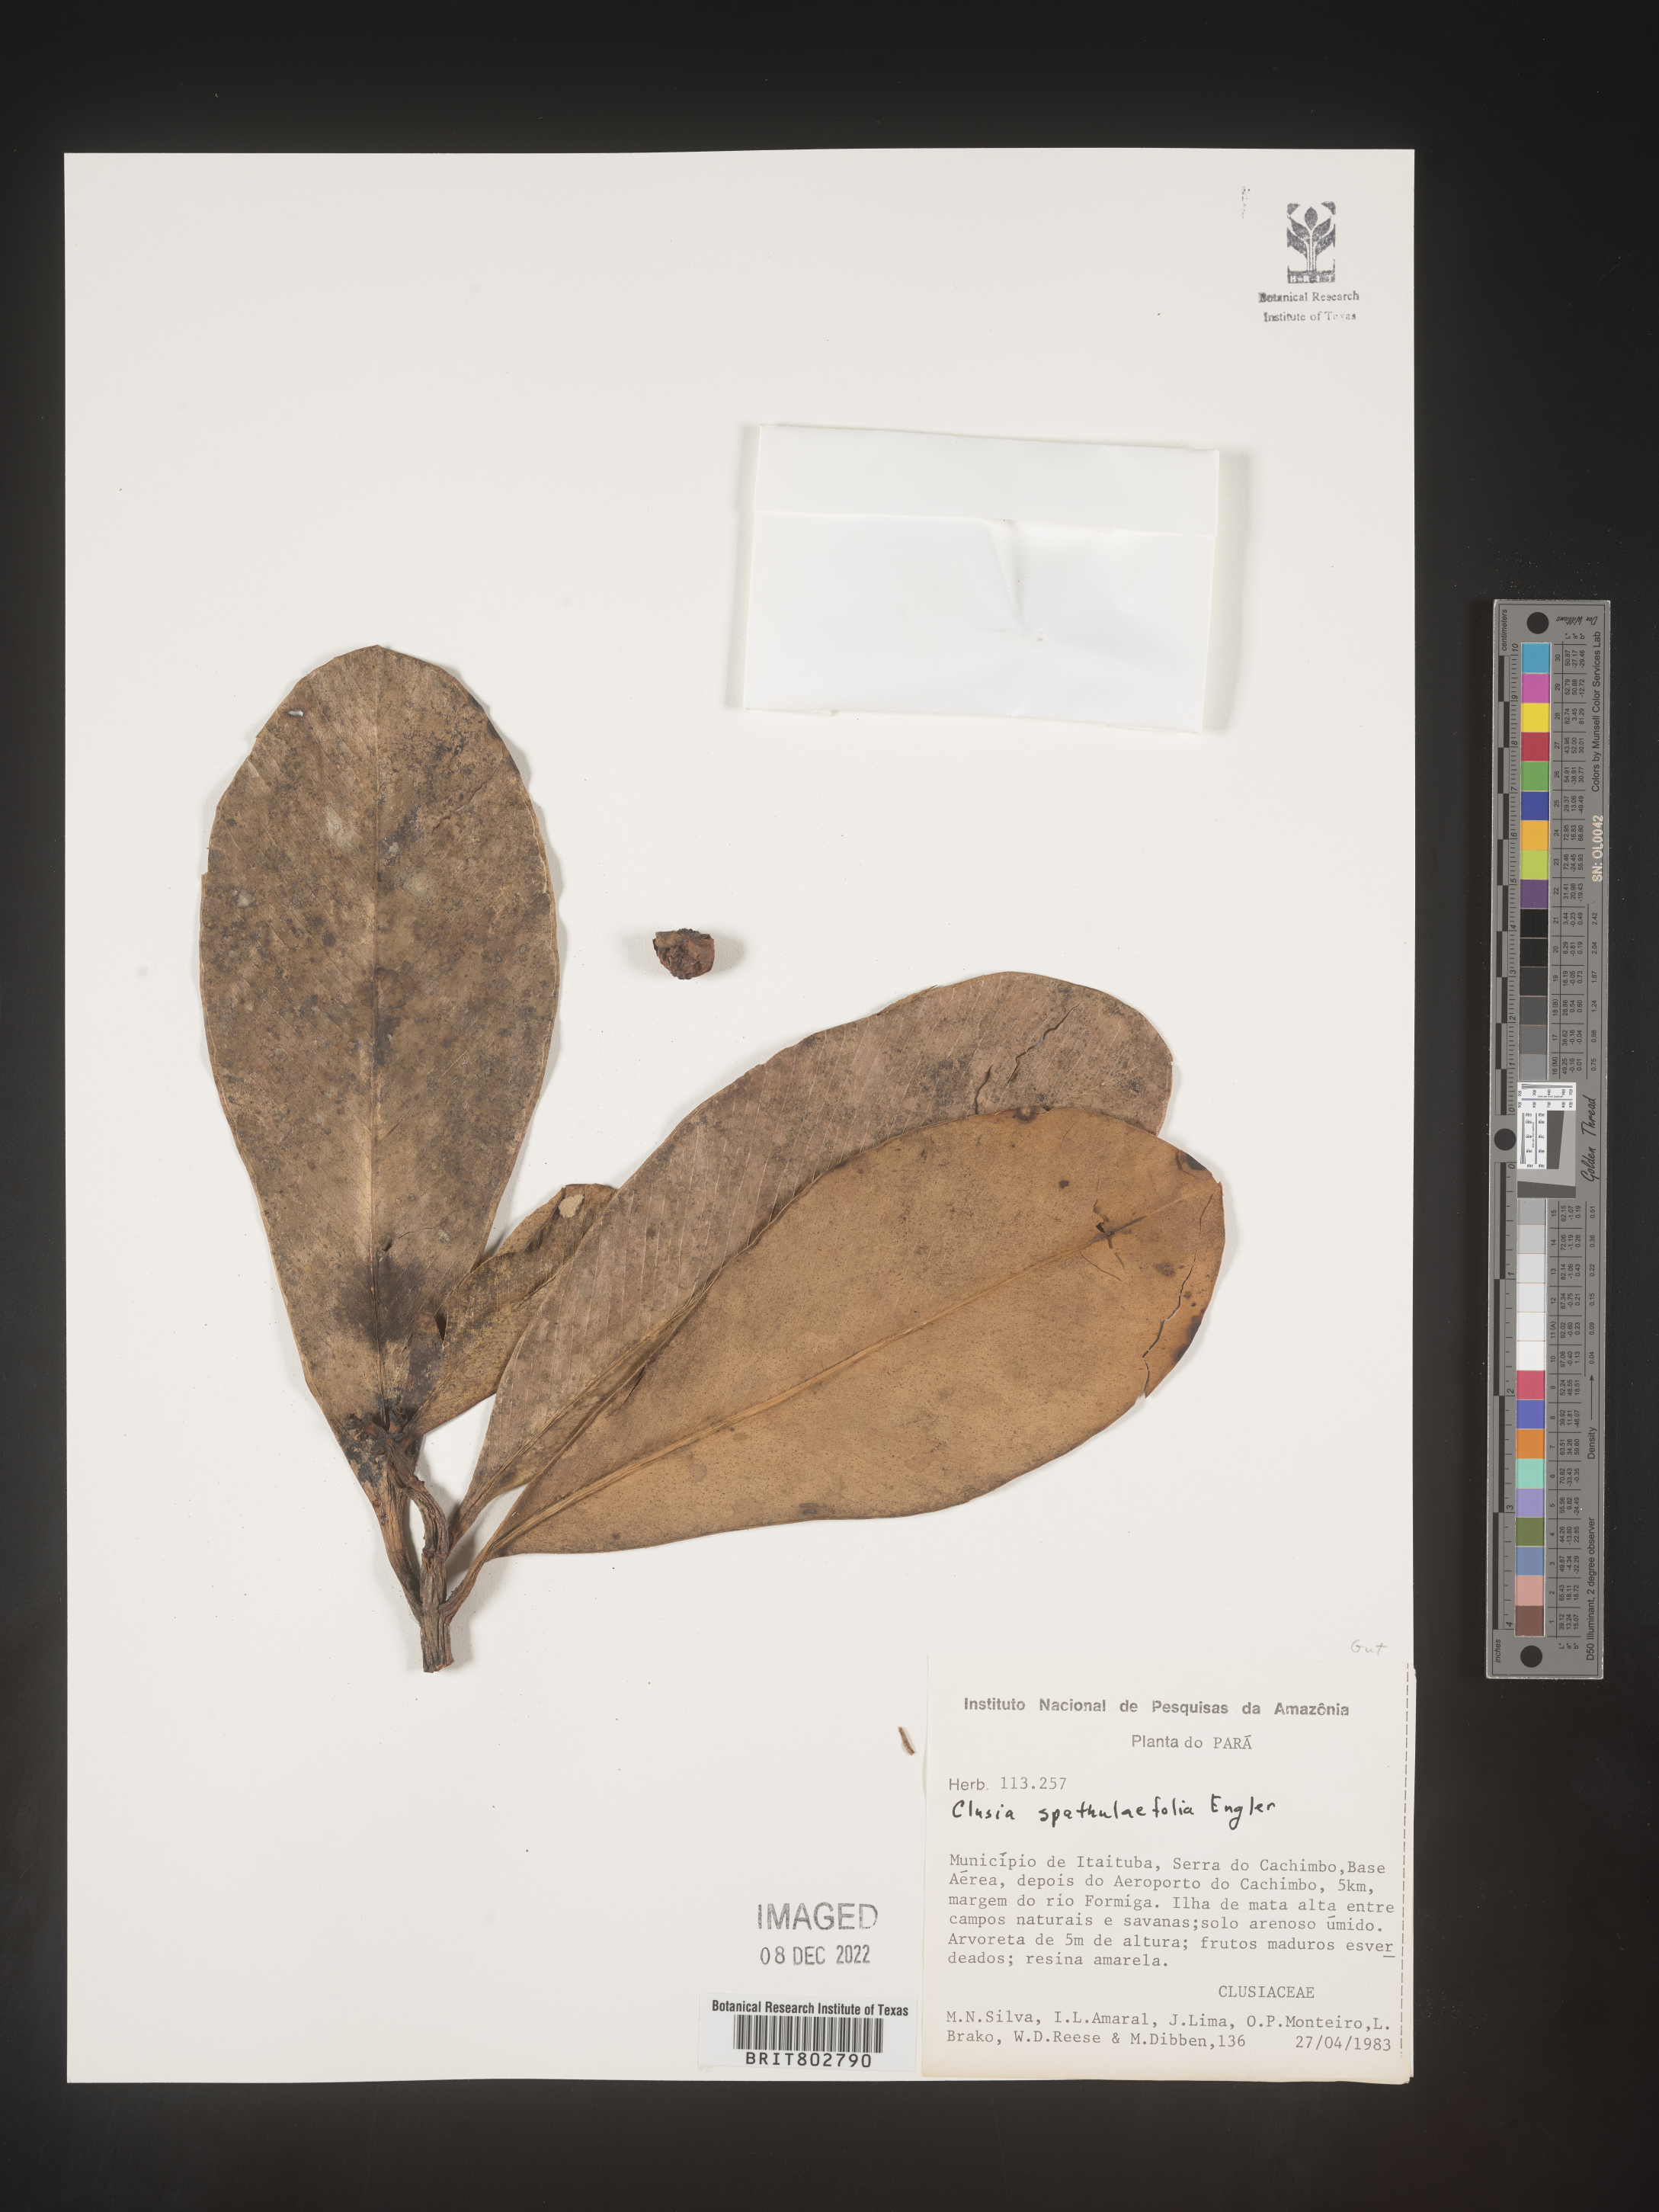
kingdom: Plantae
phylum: Tracheophyta
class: Magnoliopsida
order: Malpighiales
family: Clusiaceae
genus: Clusia
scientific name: Clusia spathulifolia
